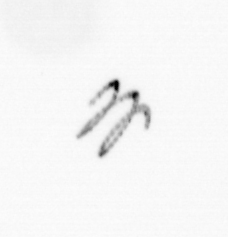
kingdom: Chromista
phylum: Ochrophyta
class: Bacillariophyceae
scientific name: Bacillariophyceae
